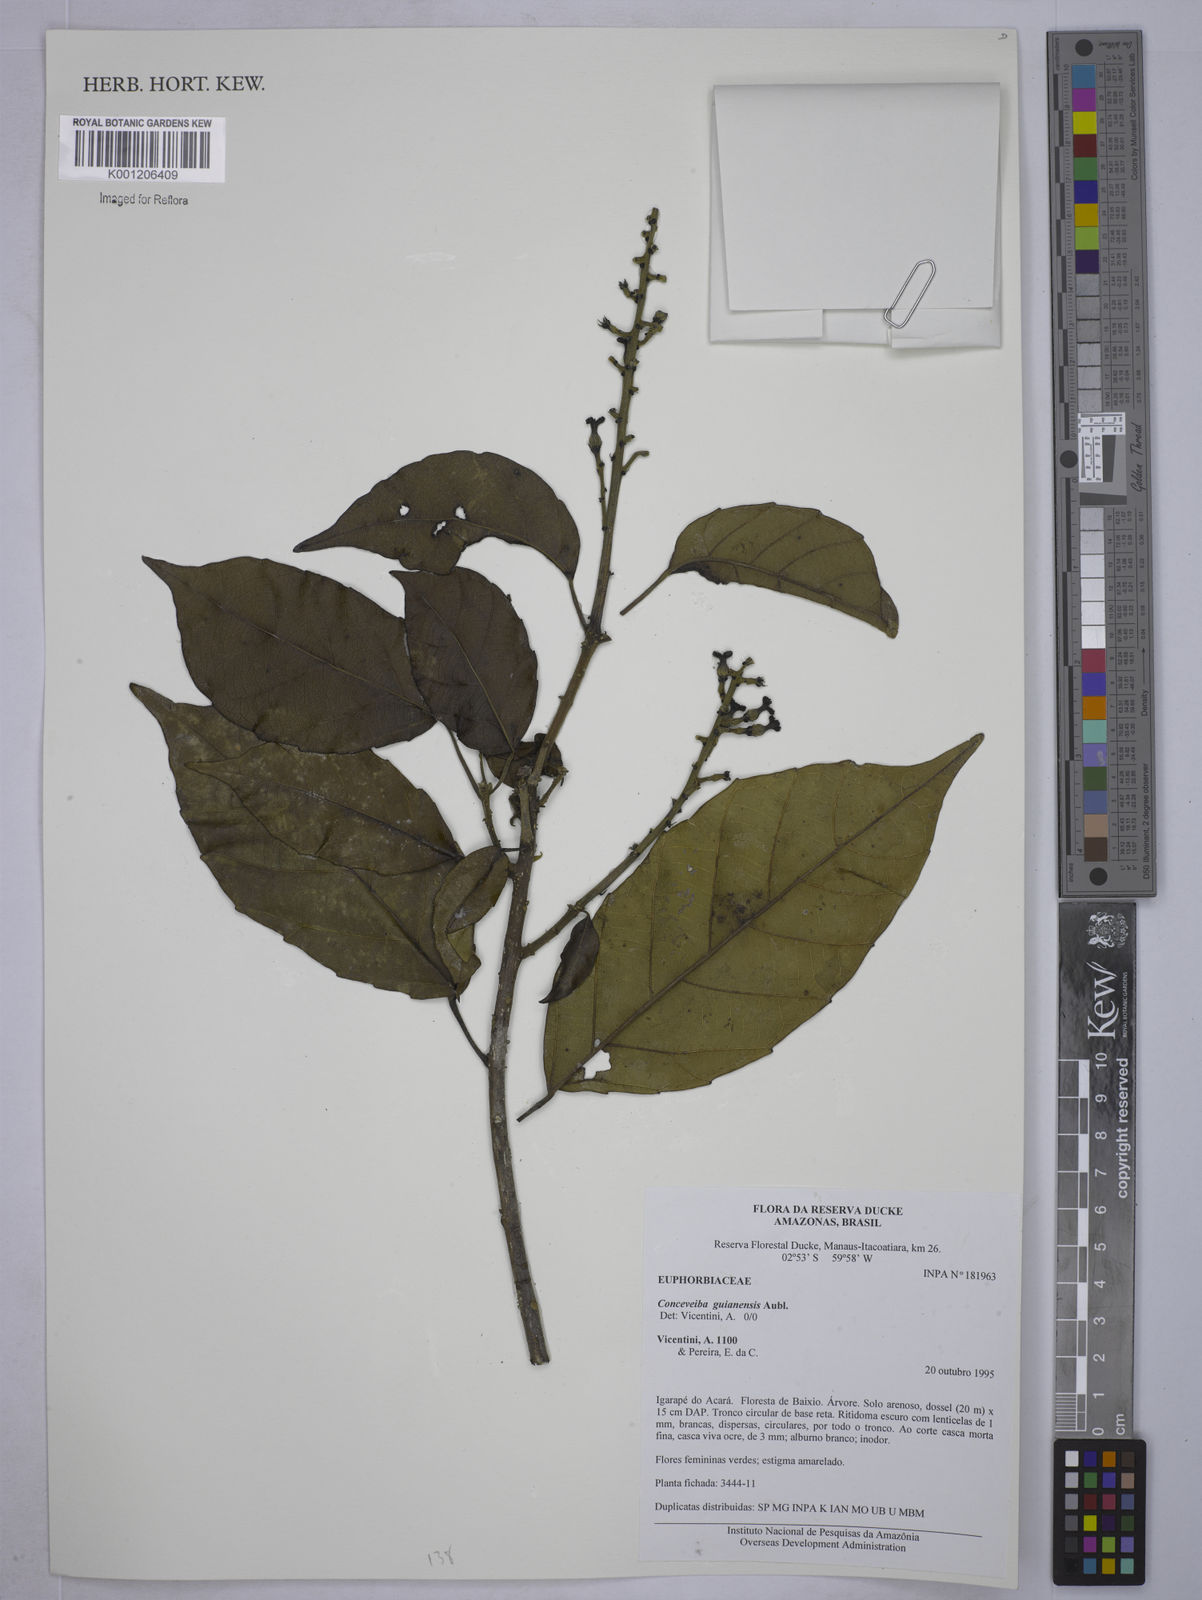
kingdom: Plantae
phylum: Tracheophyta
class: Magnoliopsida
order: Malpighiales
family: Euphorbiaceae
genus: Conceveiba
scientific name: Conceveiba guianensis
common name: Poatoru
